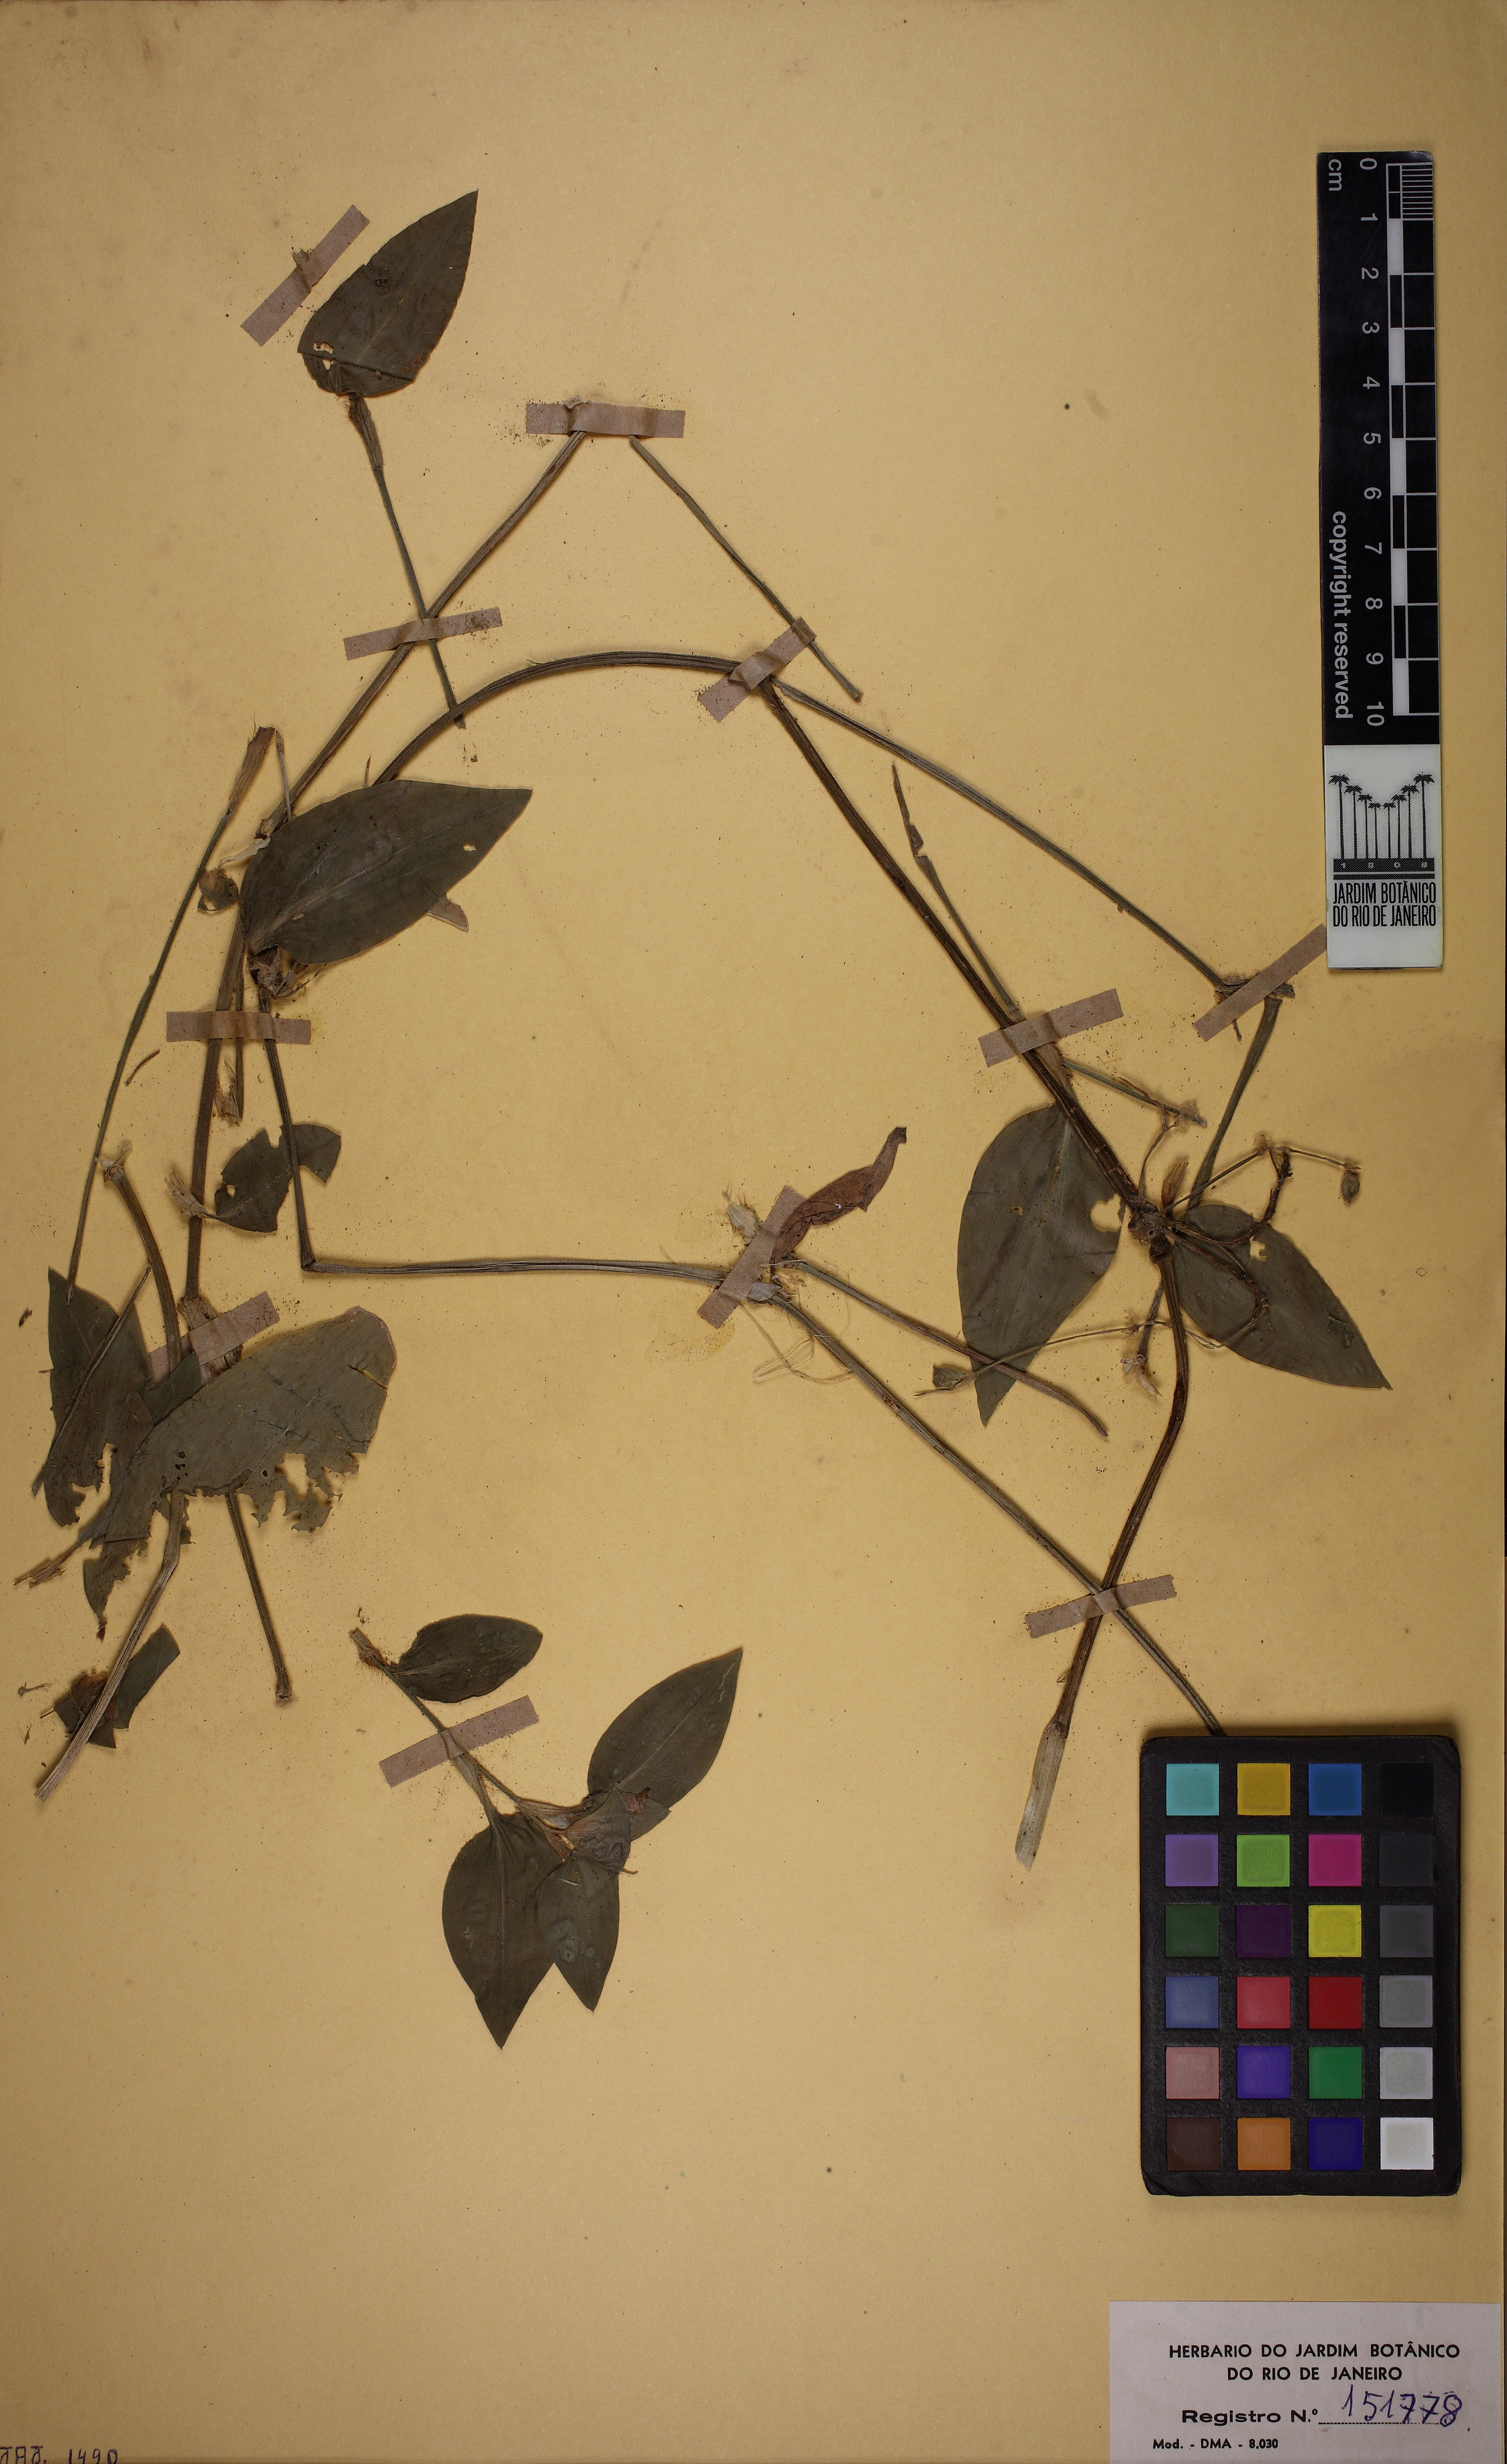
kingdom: Plantae
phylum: Tracheophyta
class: Liliopsida
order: Commelinales
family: Commelinaceae
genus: Commelina
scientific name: Commelina benghalensis
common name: Jio
